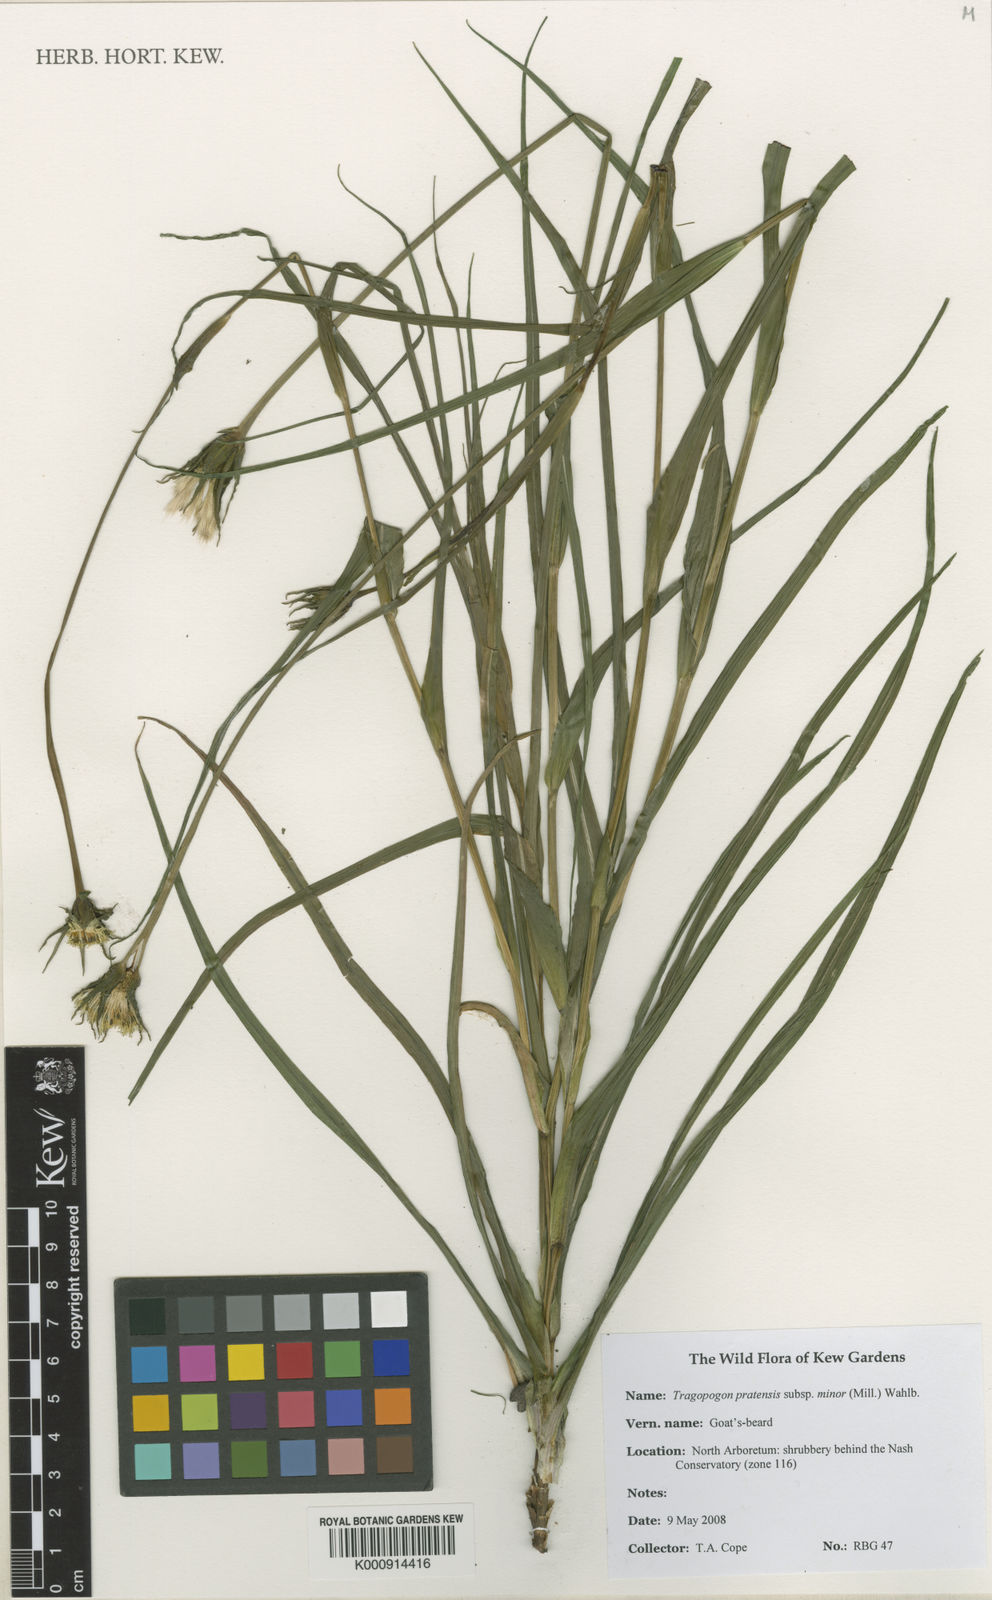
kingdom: Plantae
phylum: Tracheophyta
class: Magnoliopsida
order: Asterales
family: Asteraceae
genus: Tragopogon
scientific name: Tragopogon
